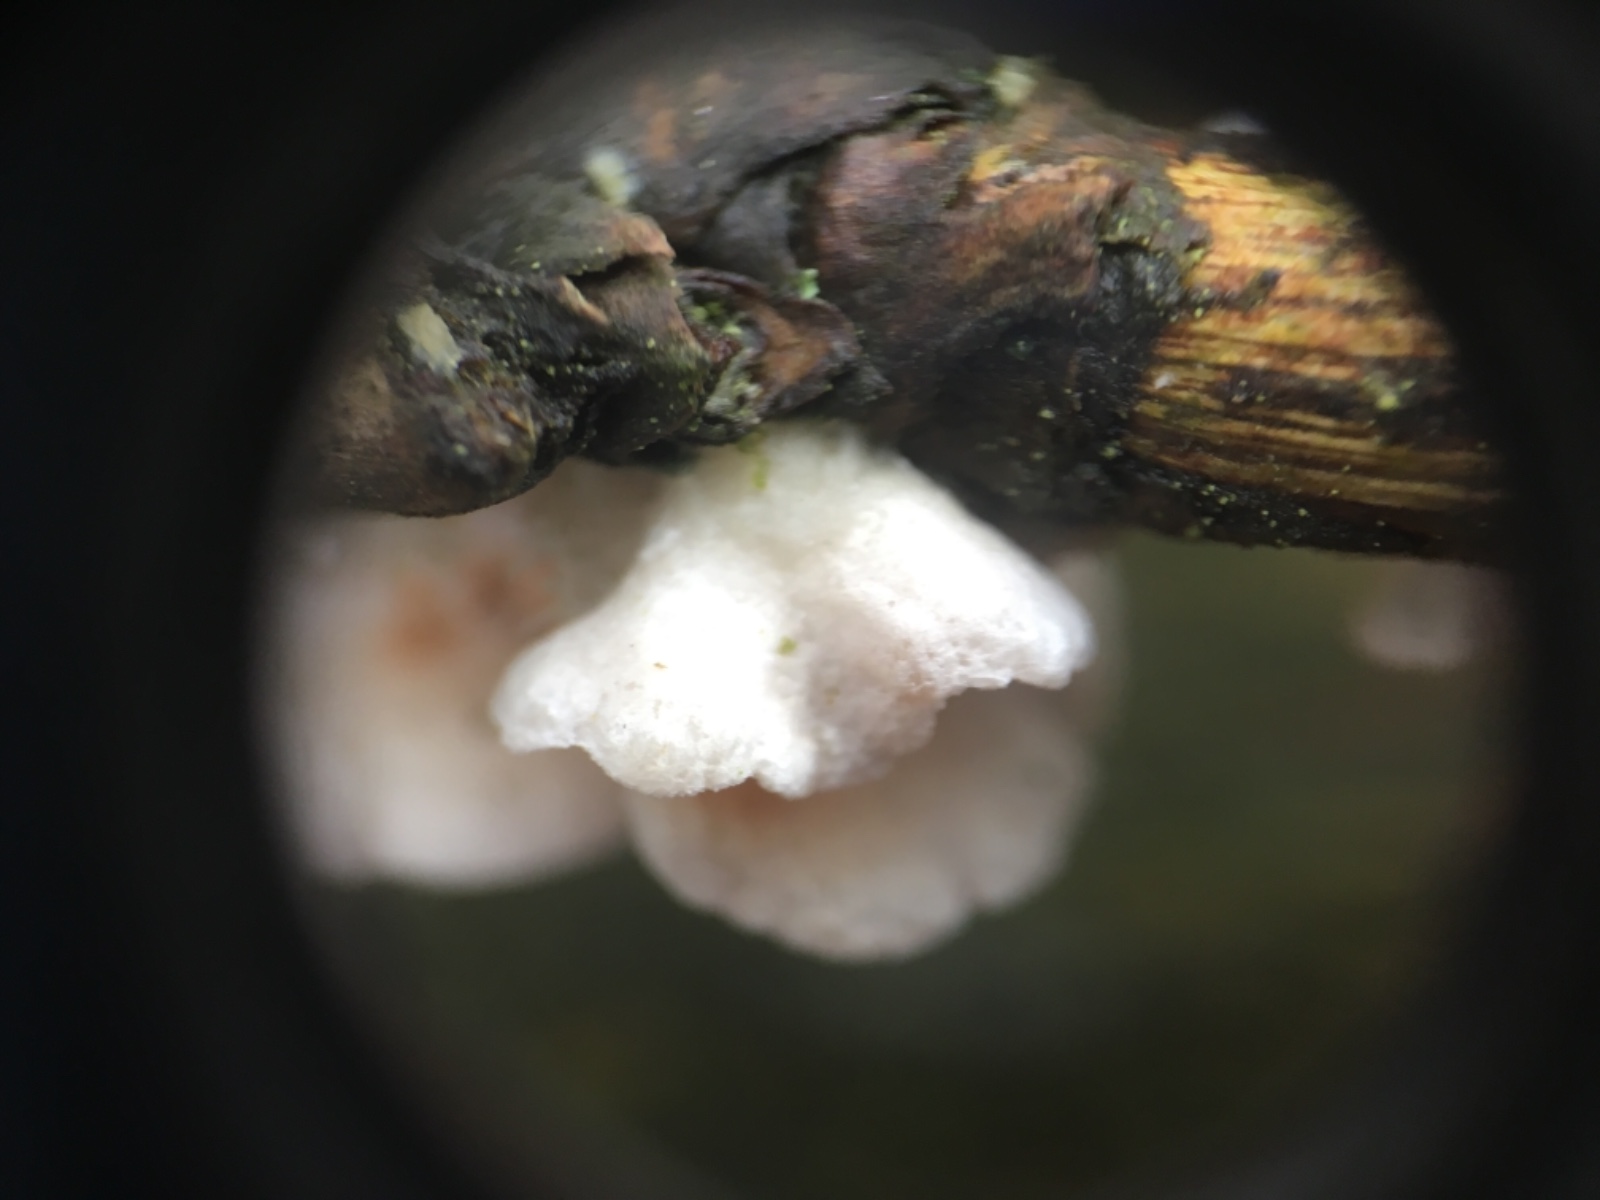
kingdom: Fungi
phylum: Basidiomycota
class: Agaricomycetes
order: Agaricales
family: Crepidotaceae
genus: Crepidotus
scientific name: Crepidotus
